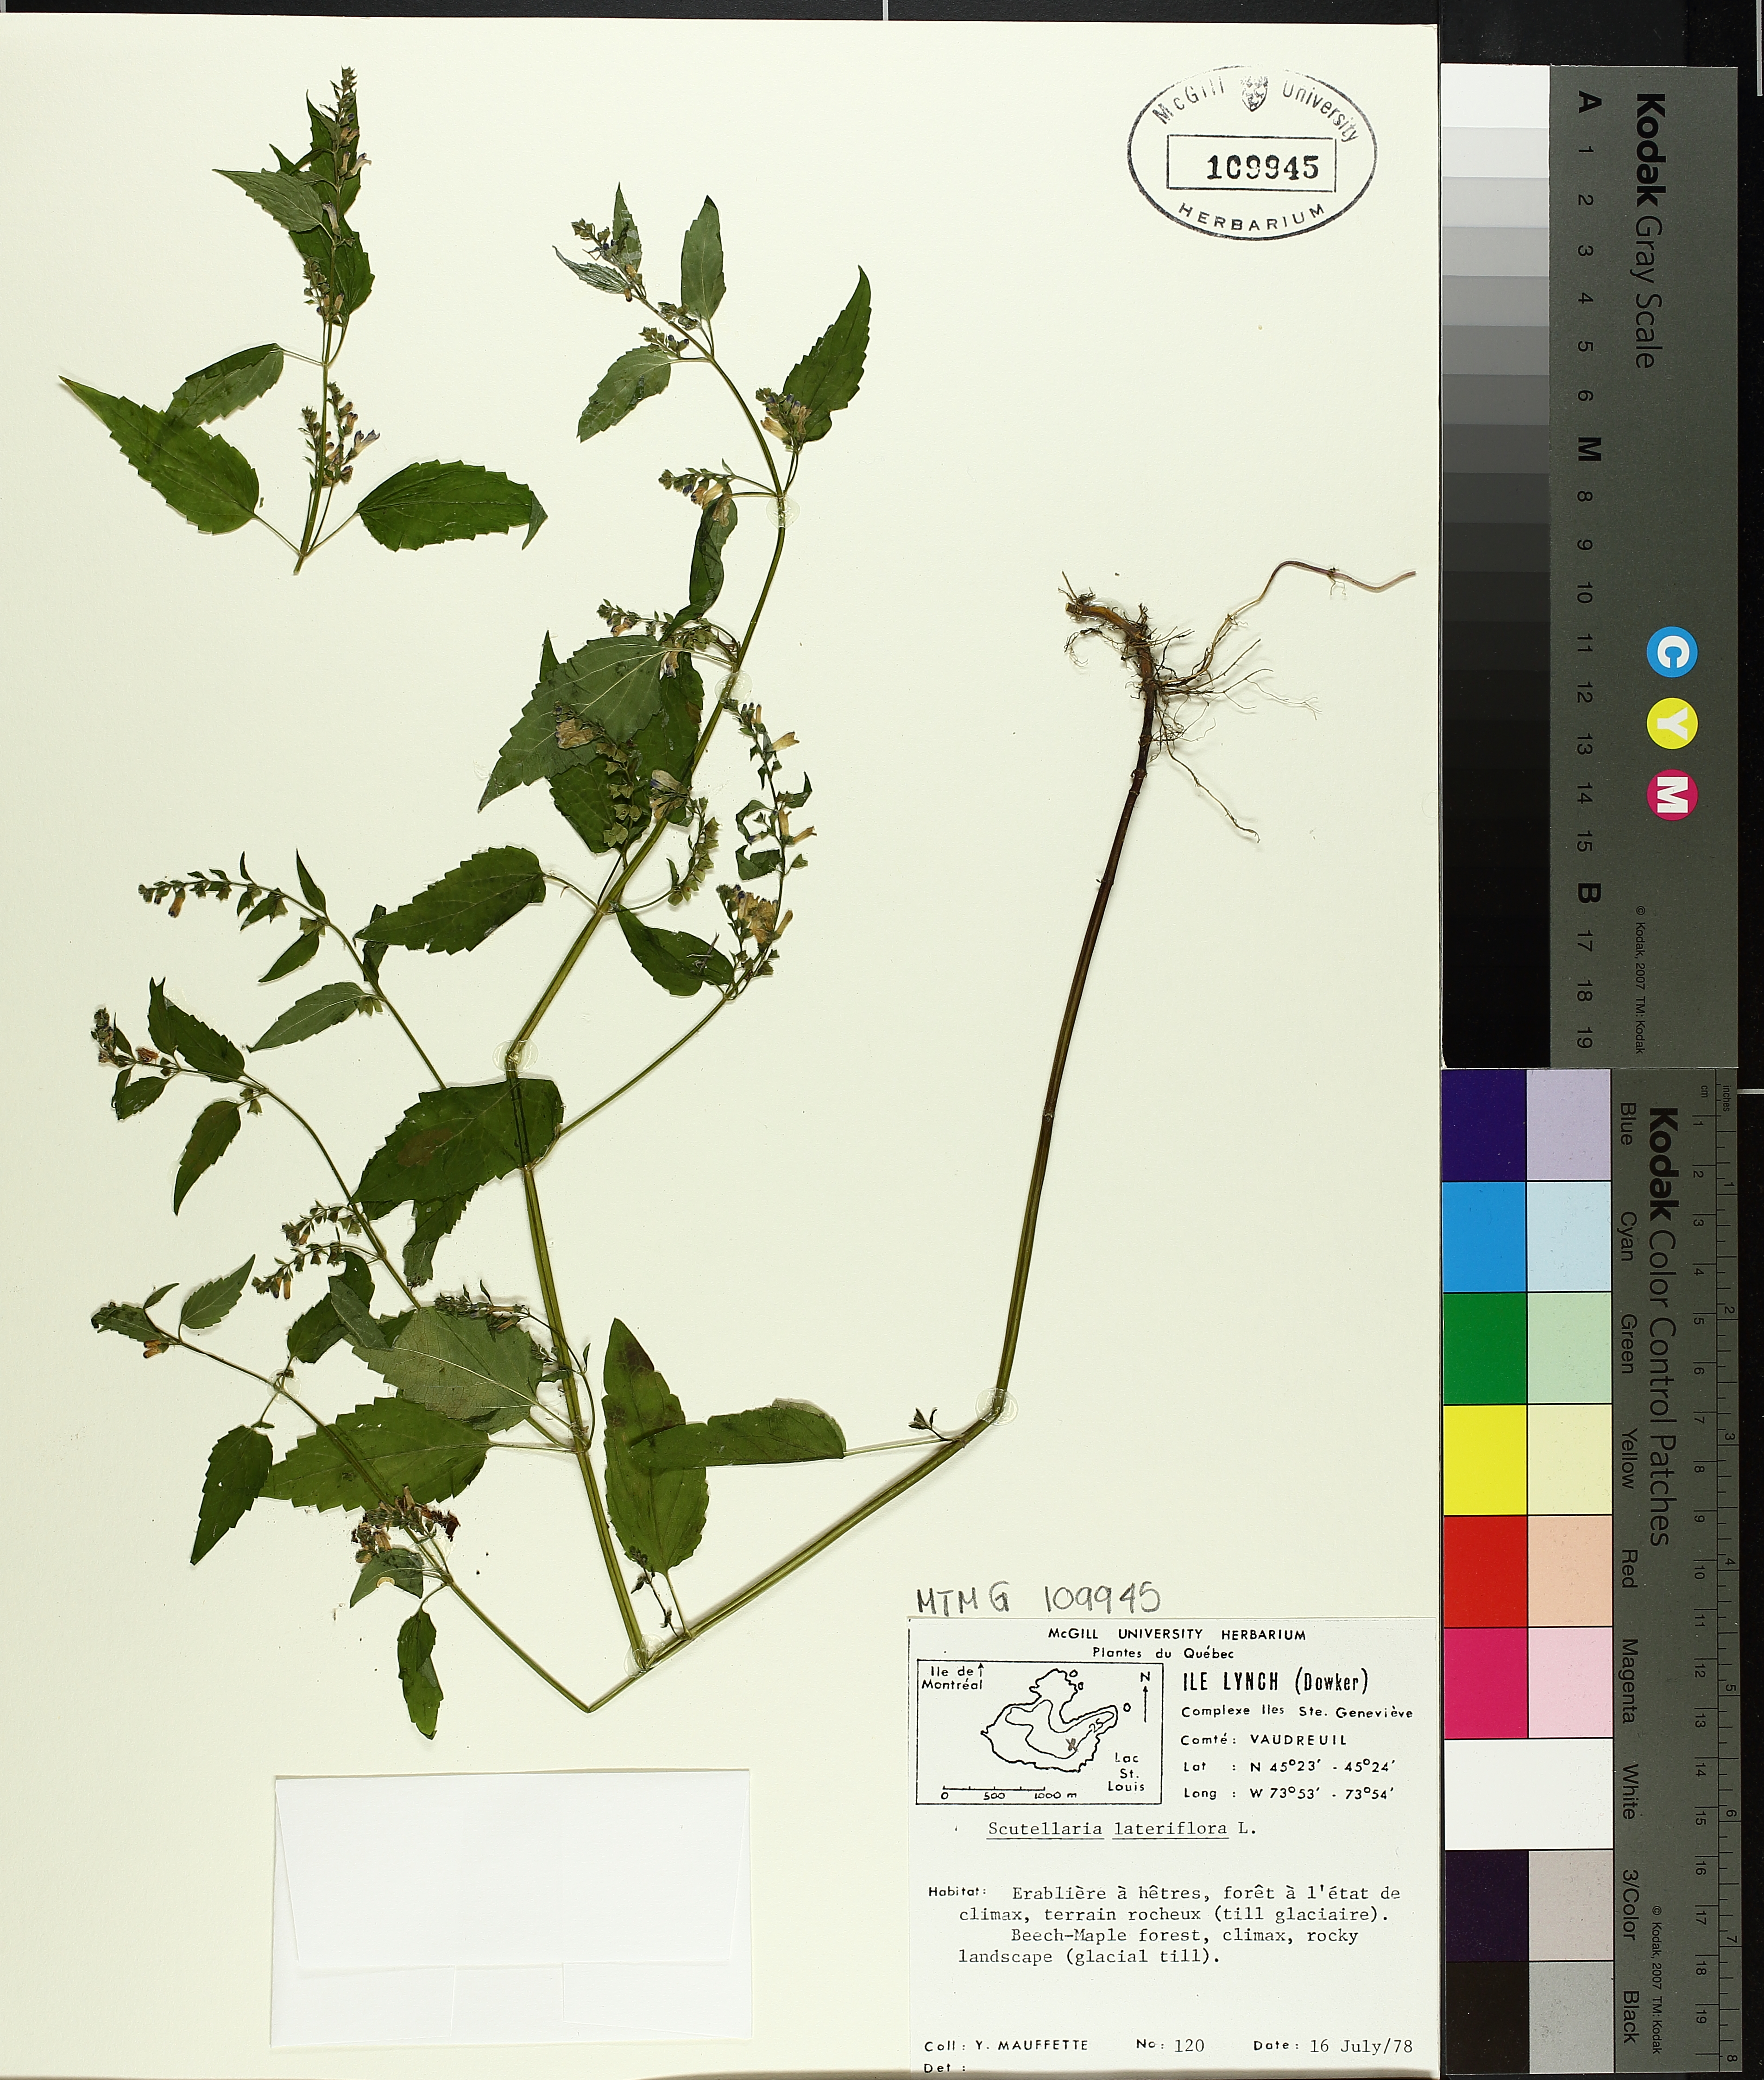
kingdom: Plantae
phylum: Tracheophyta
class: Magnoliopsida
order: Lamiales
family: Lamiaceae
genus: Scutellaria
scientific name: Scutellaria lateriflora
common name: Blue skullcap
